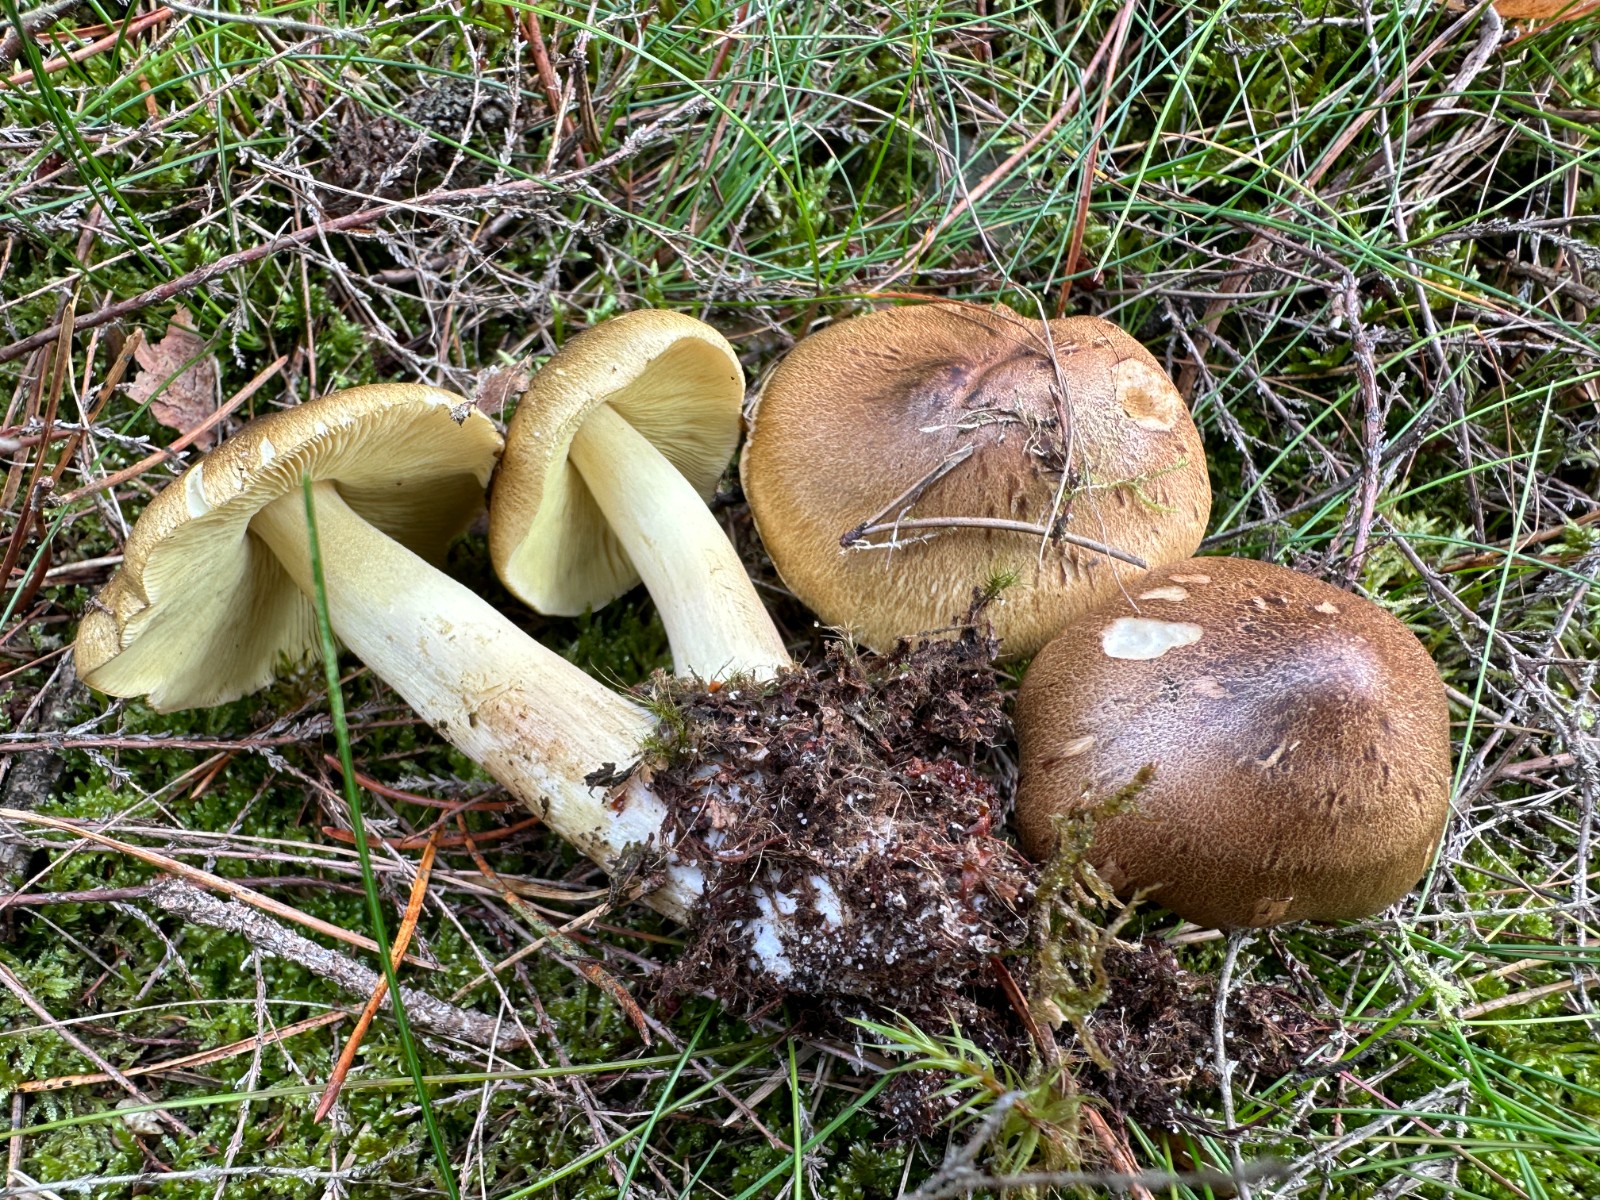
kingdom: Fungi
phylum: Basidiomycota
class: Agaricomycetes
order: Agaricales
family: Tricholomataceae
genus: Tricholoma
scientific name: Tricholoma aestuans
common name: kegle-ridderhat
